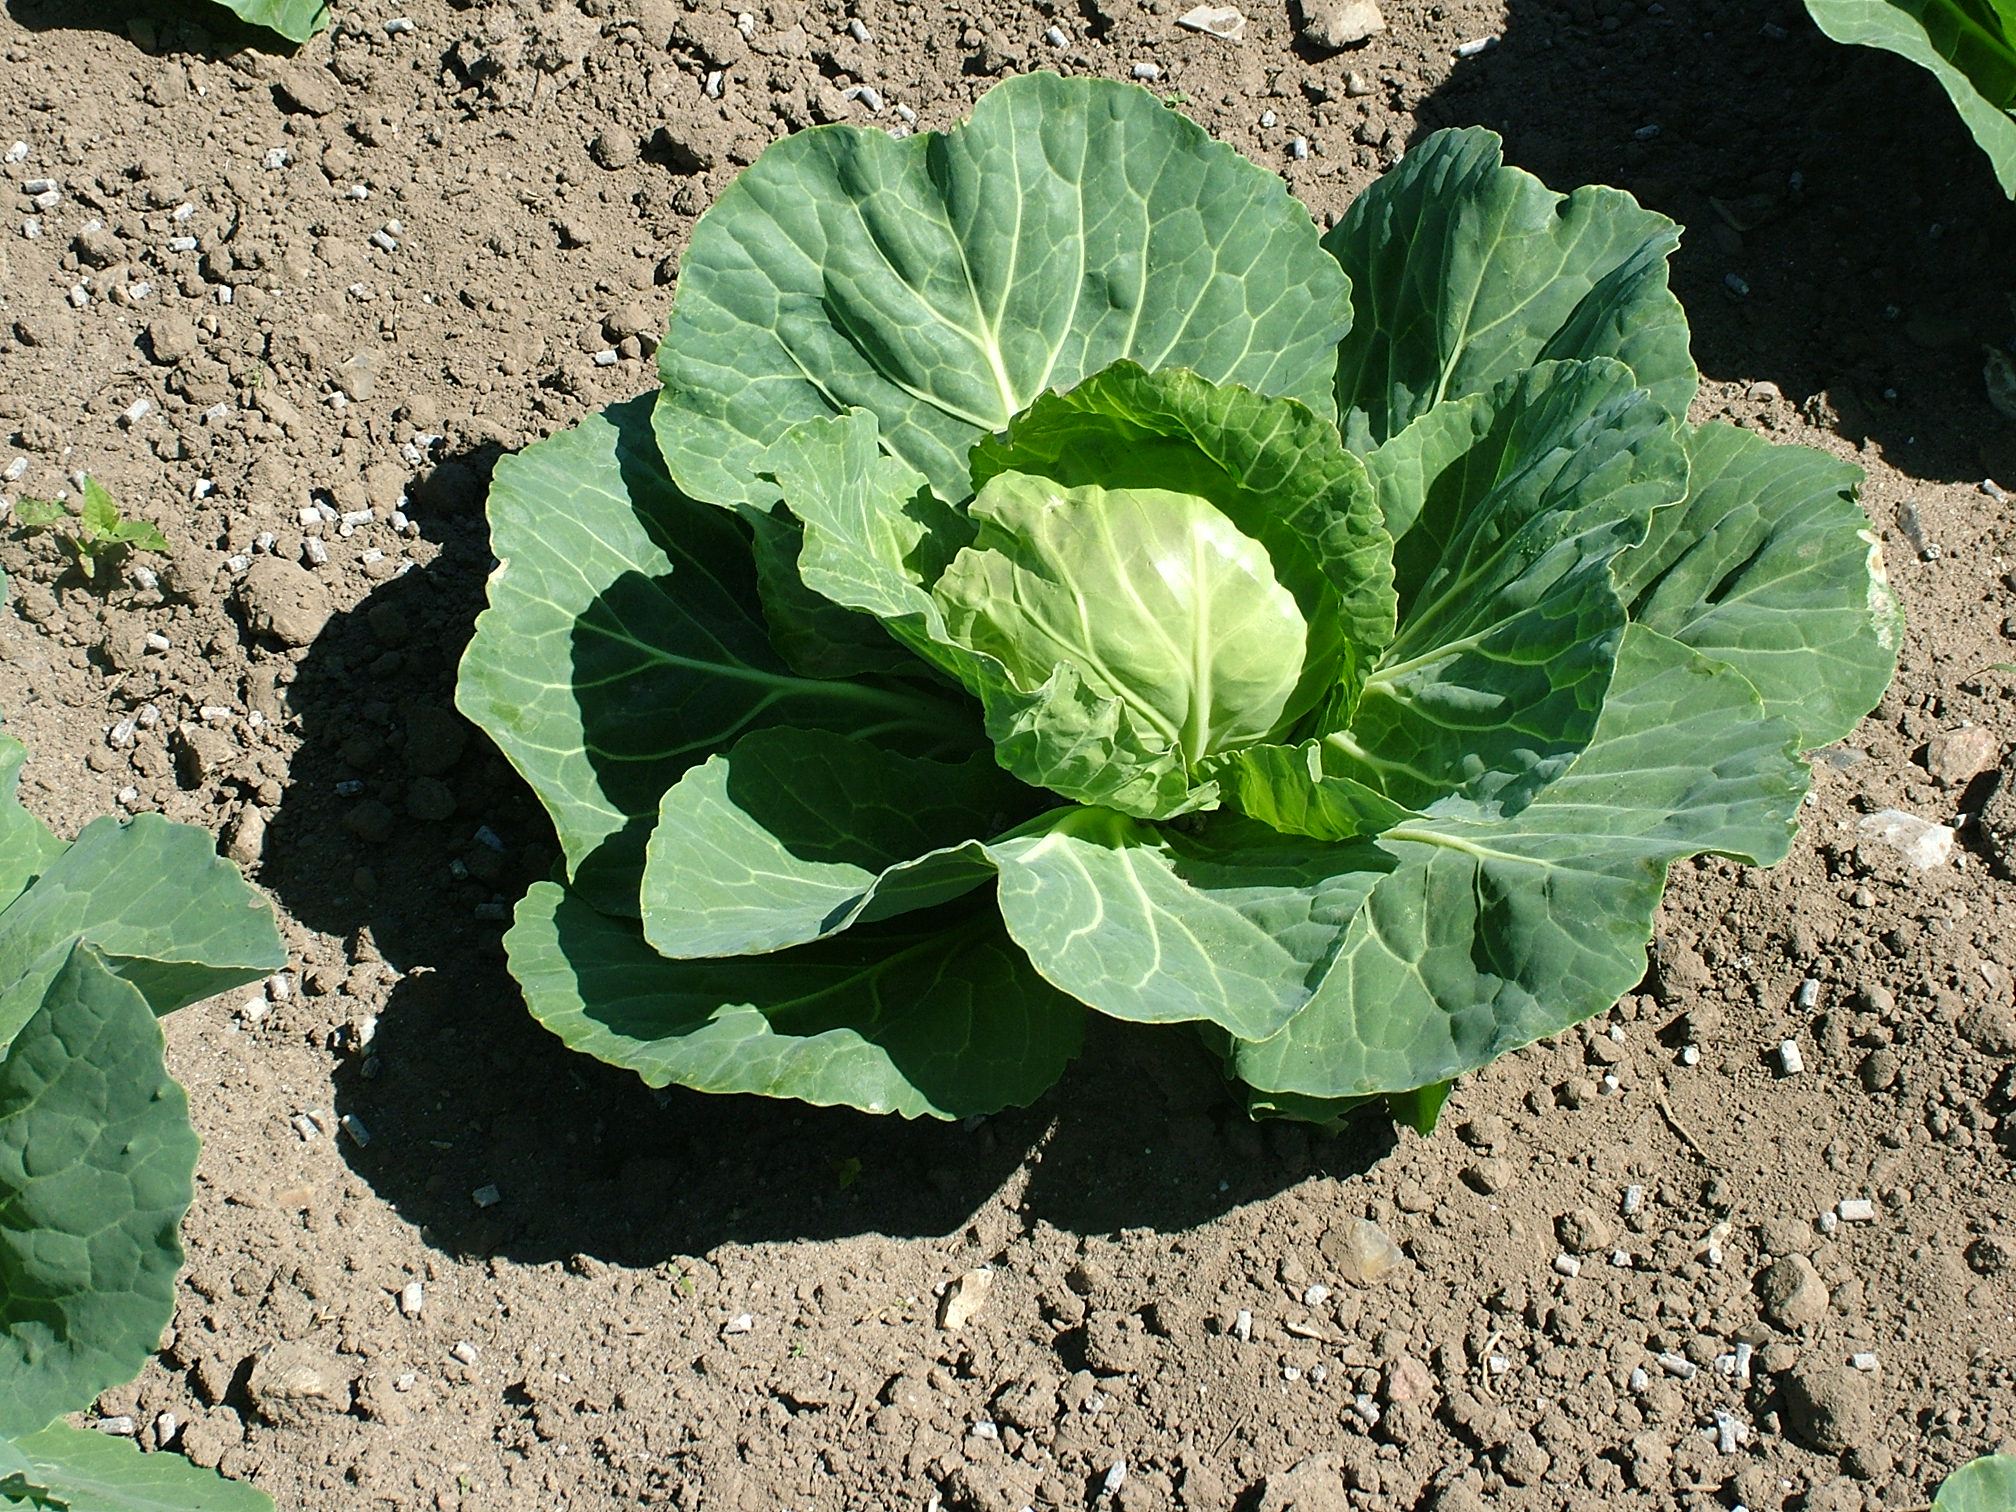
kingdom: Plantae
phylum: Tracheophyta
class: Magnoliopsida
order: Brassicales
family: Brassicaceae
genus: Brassica
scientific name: Brassica oleracea
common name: Cabbage
